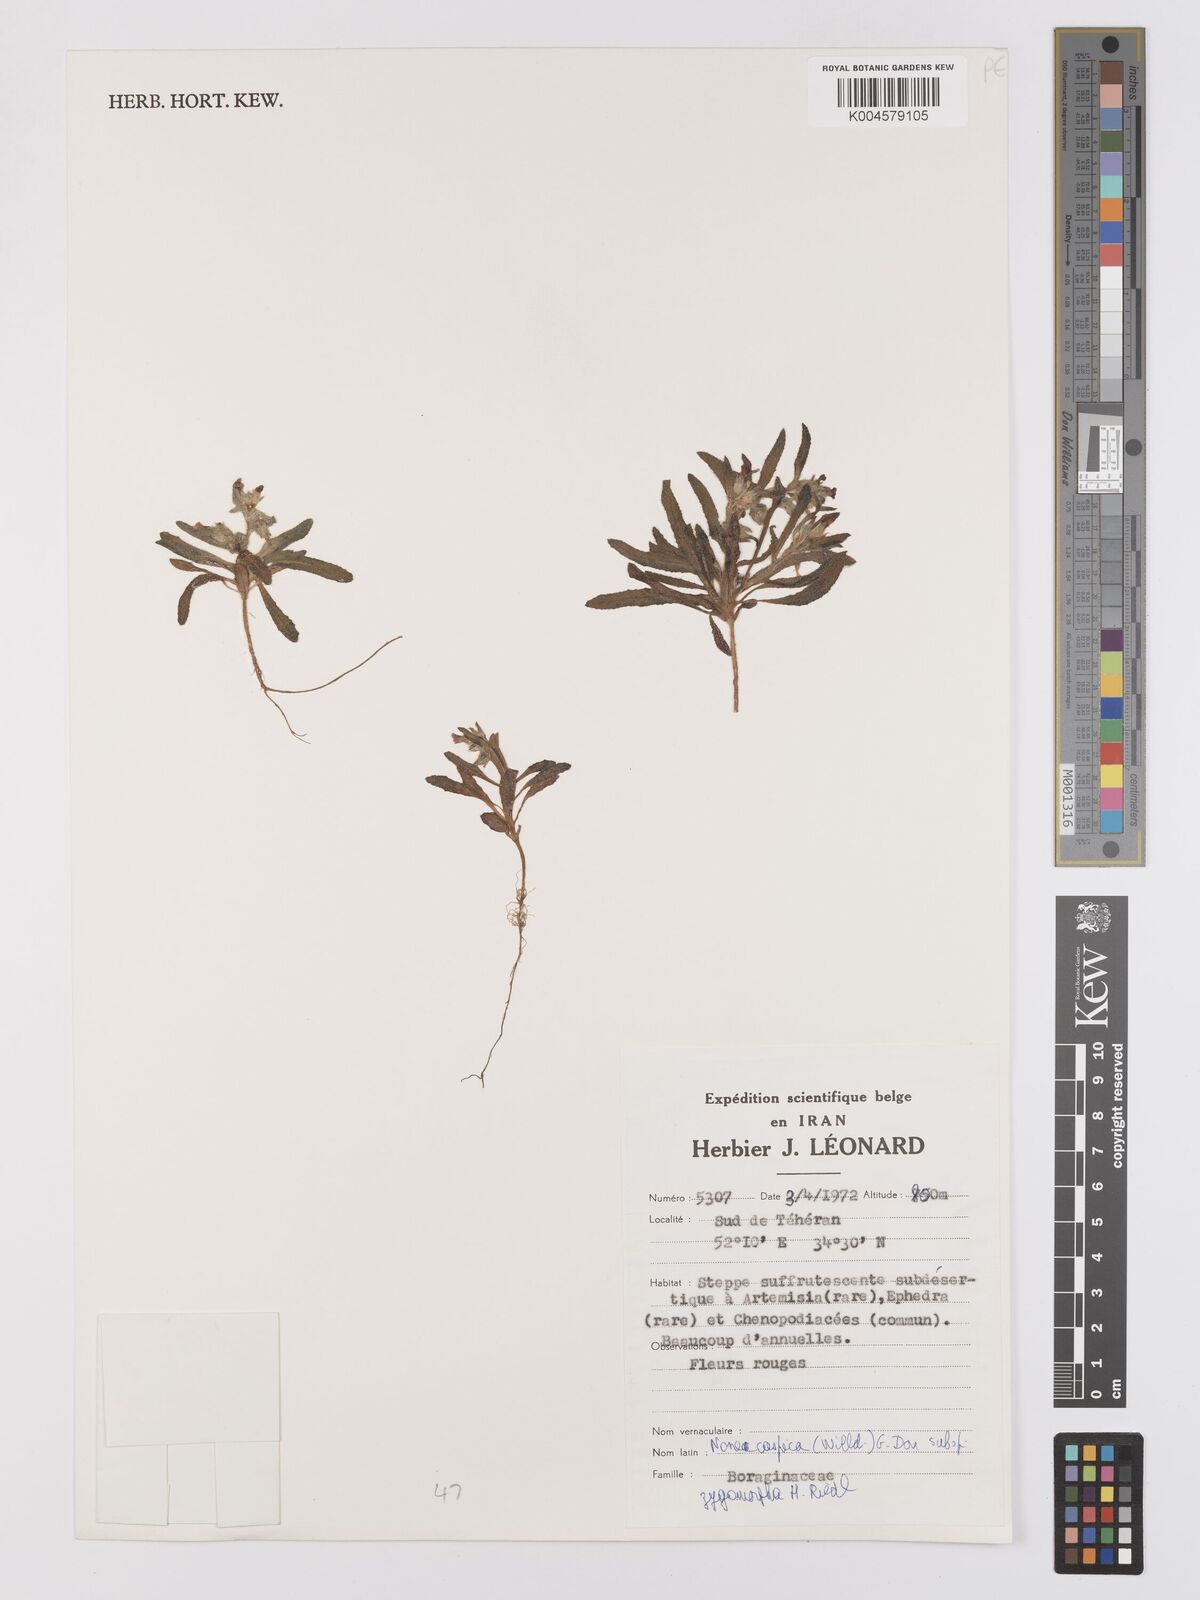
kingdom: Plantae
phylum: Tracheophyta
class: Magnoliopsida
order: Boraginales
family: Boraginaceae
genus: Nonea
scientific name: Nonea caspica
